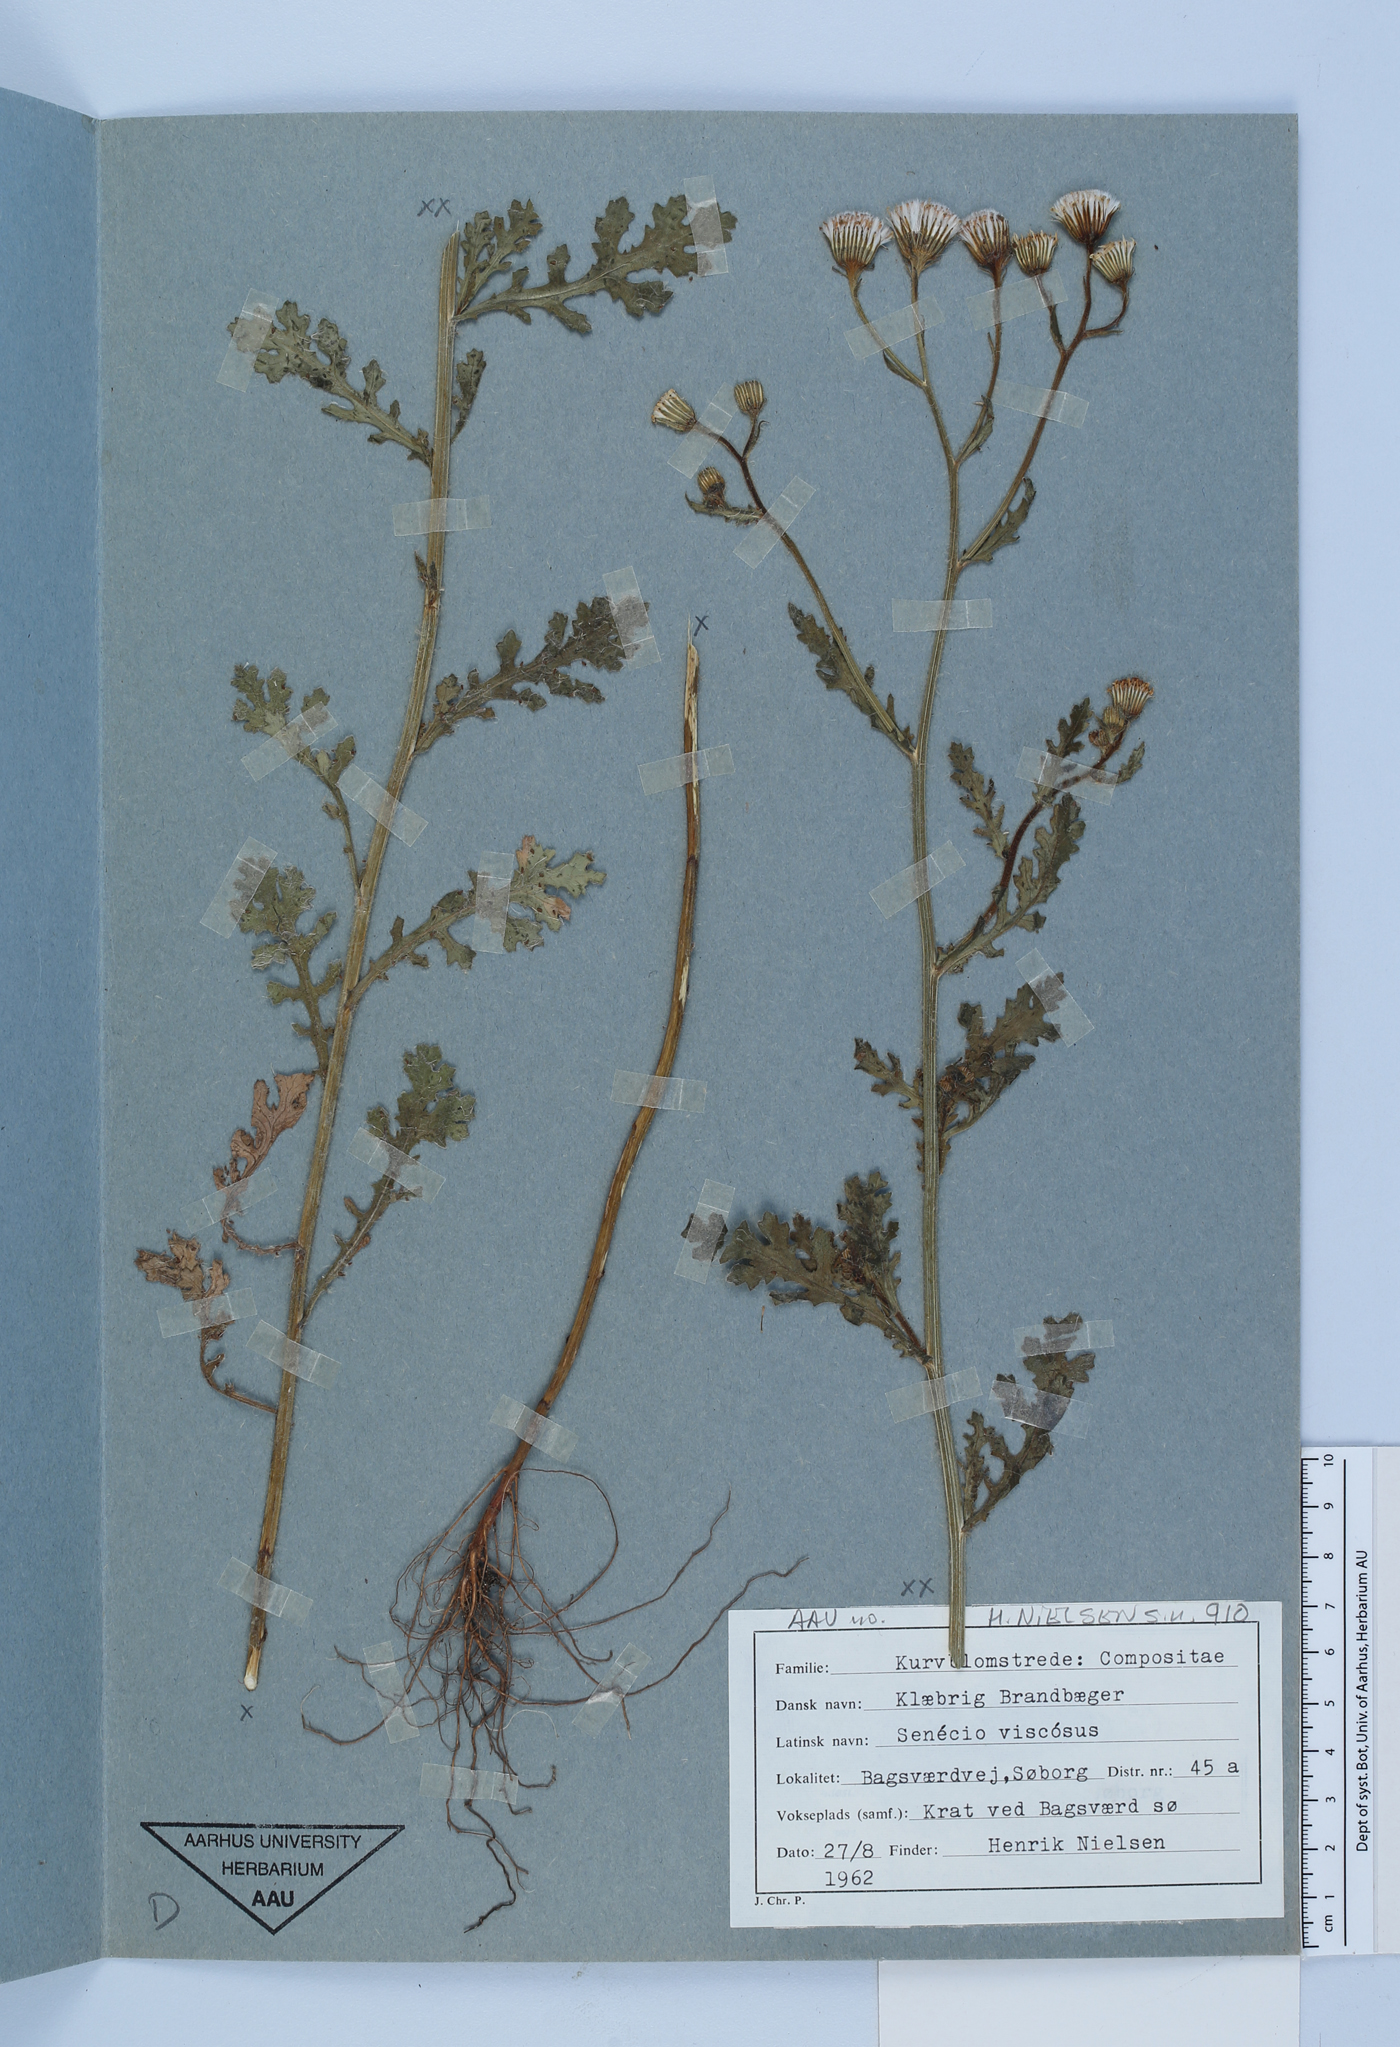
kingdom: Plantae
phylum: Tracheophyta
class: Magnoliopsida
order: Asterales
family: Asteraceae
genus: Senecio
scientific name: Senecio viscosus
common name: Sticky groundsel
